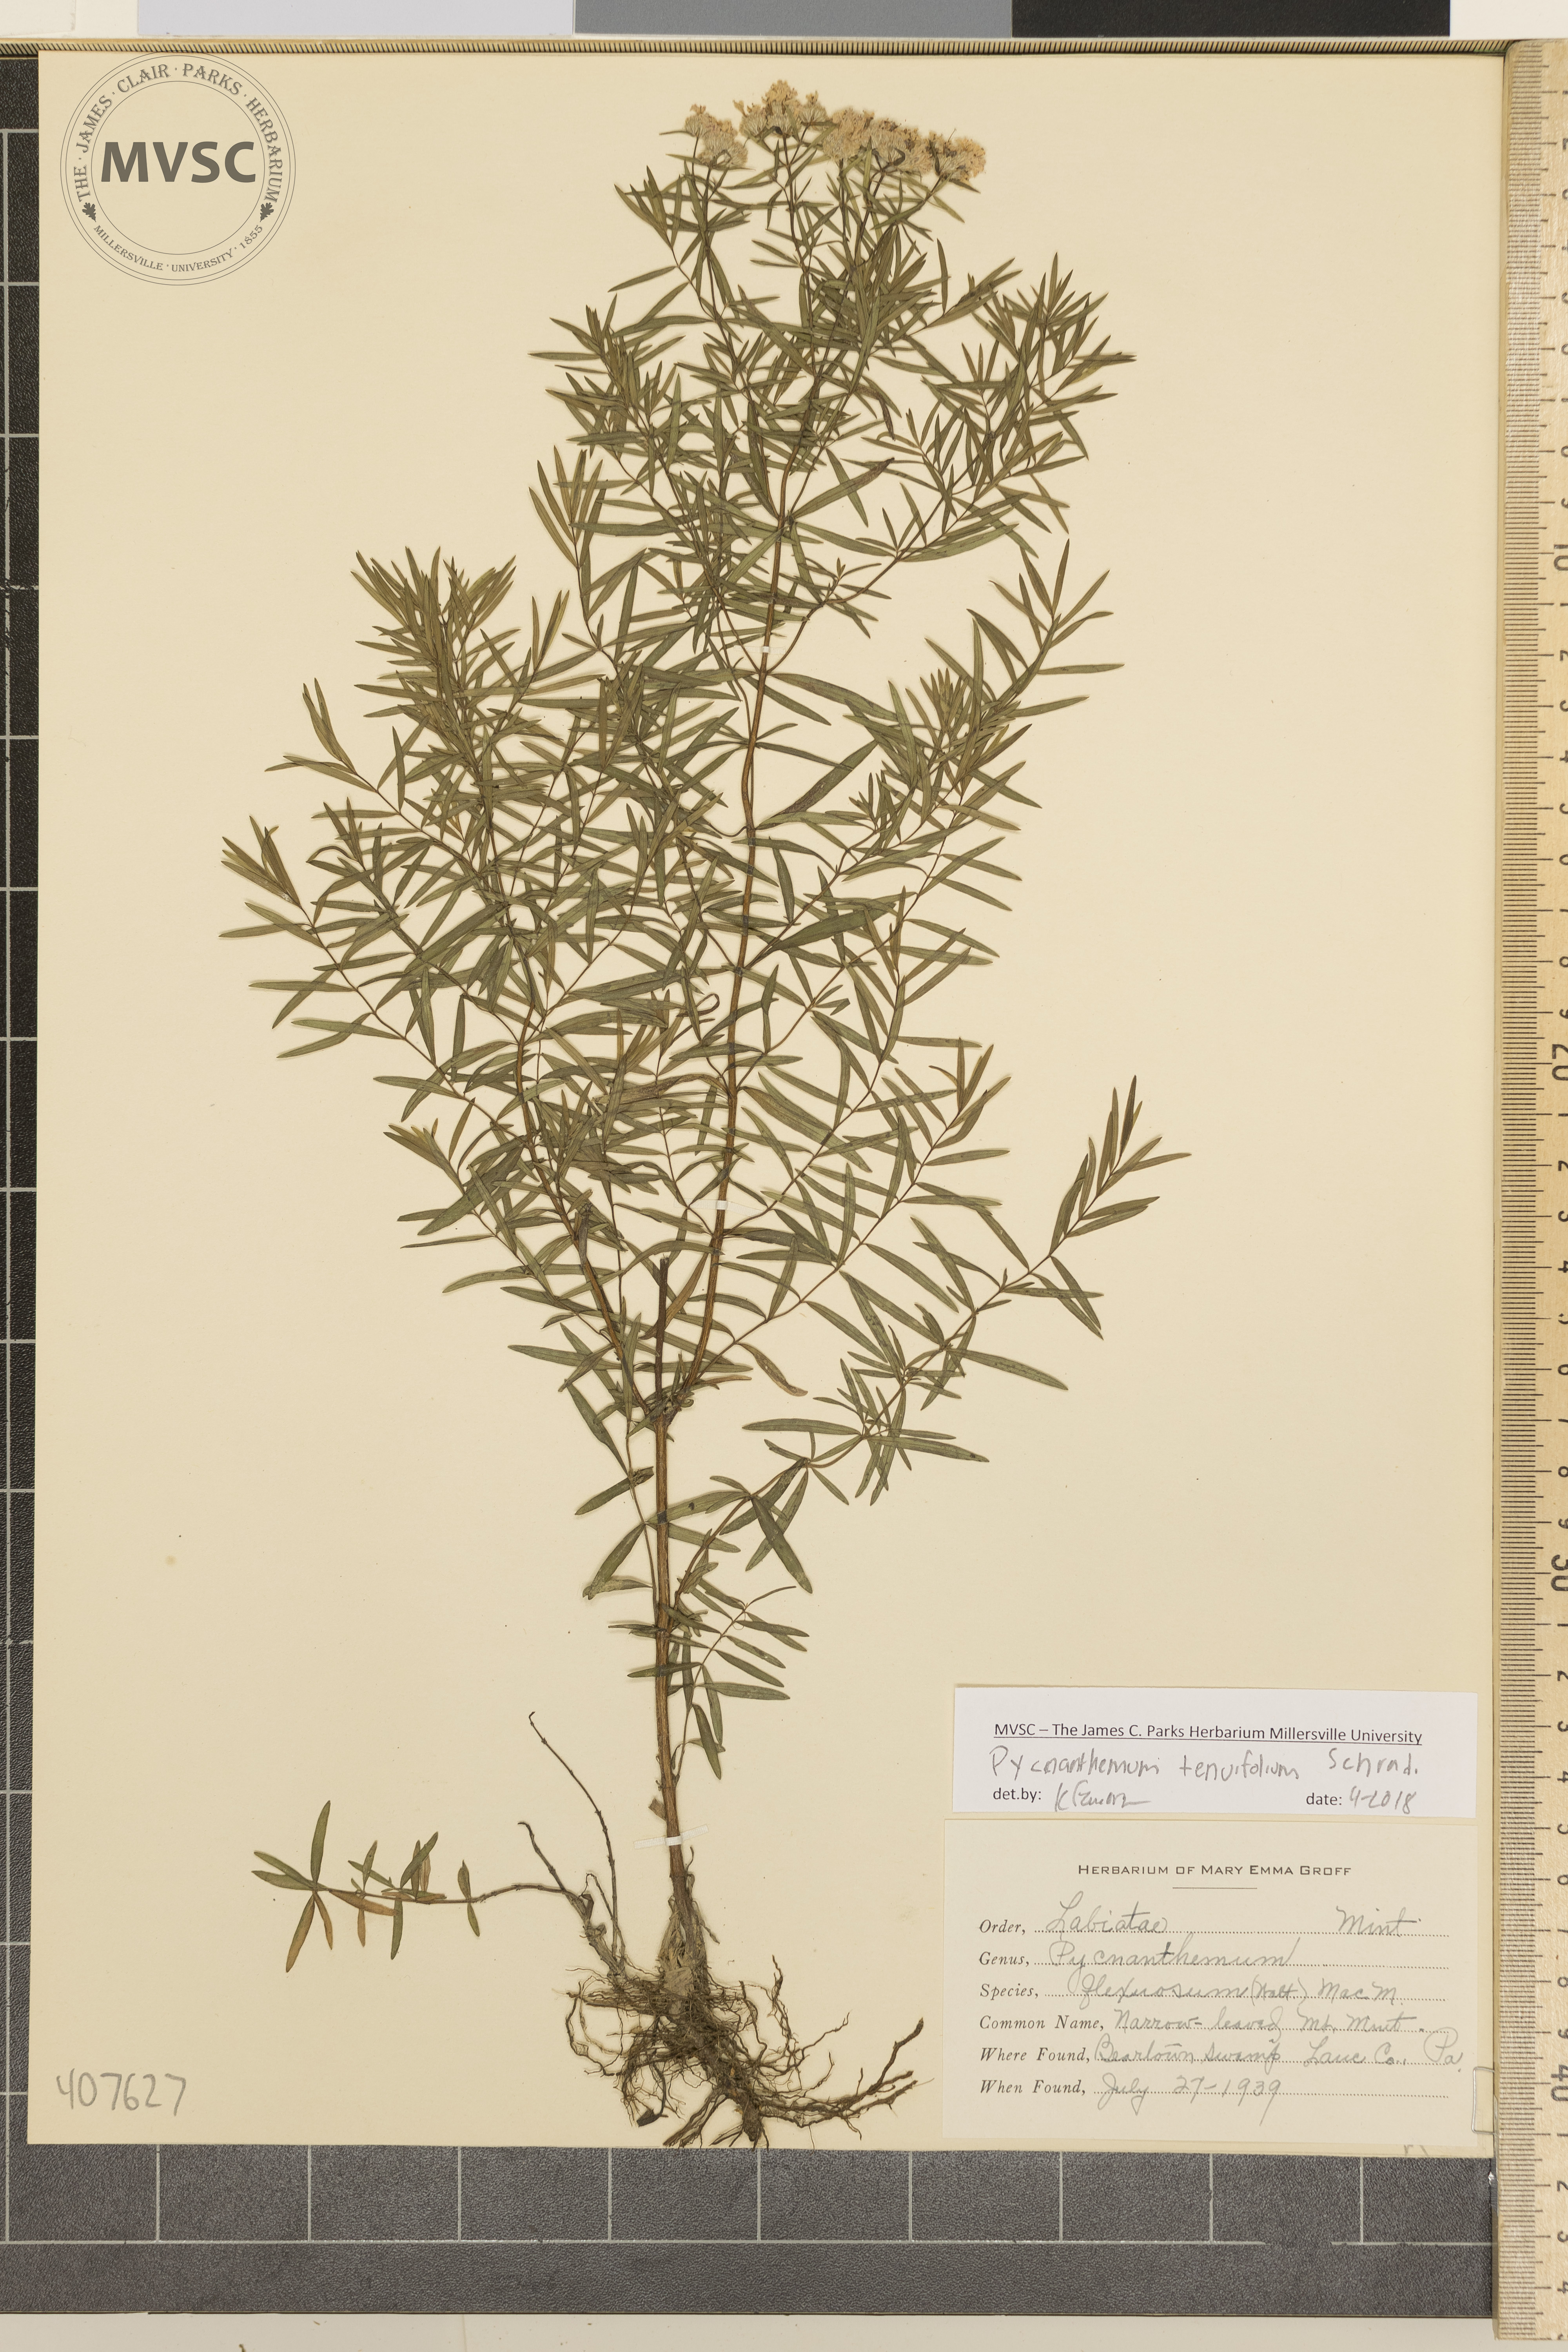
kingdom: Plantae
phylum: Tracheophyta
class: Magnoliopsida
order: Lamiales
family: Lamiaceae
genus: Pycnanthemum
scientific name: Pycnanthemum tenuifolium
